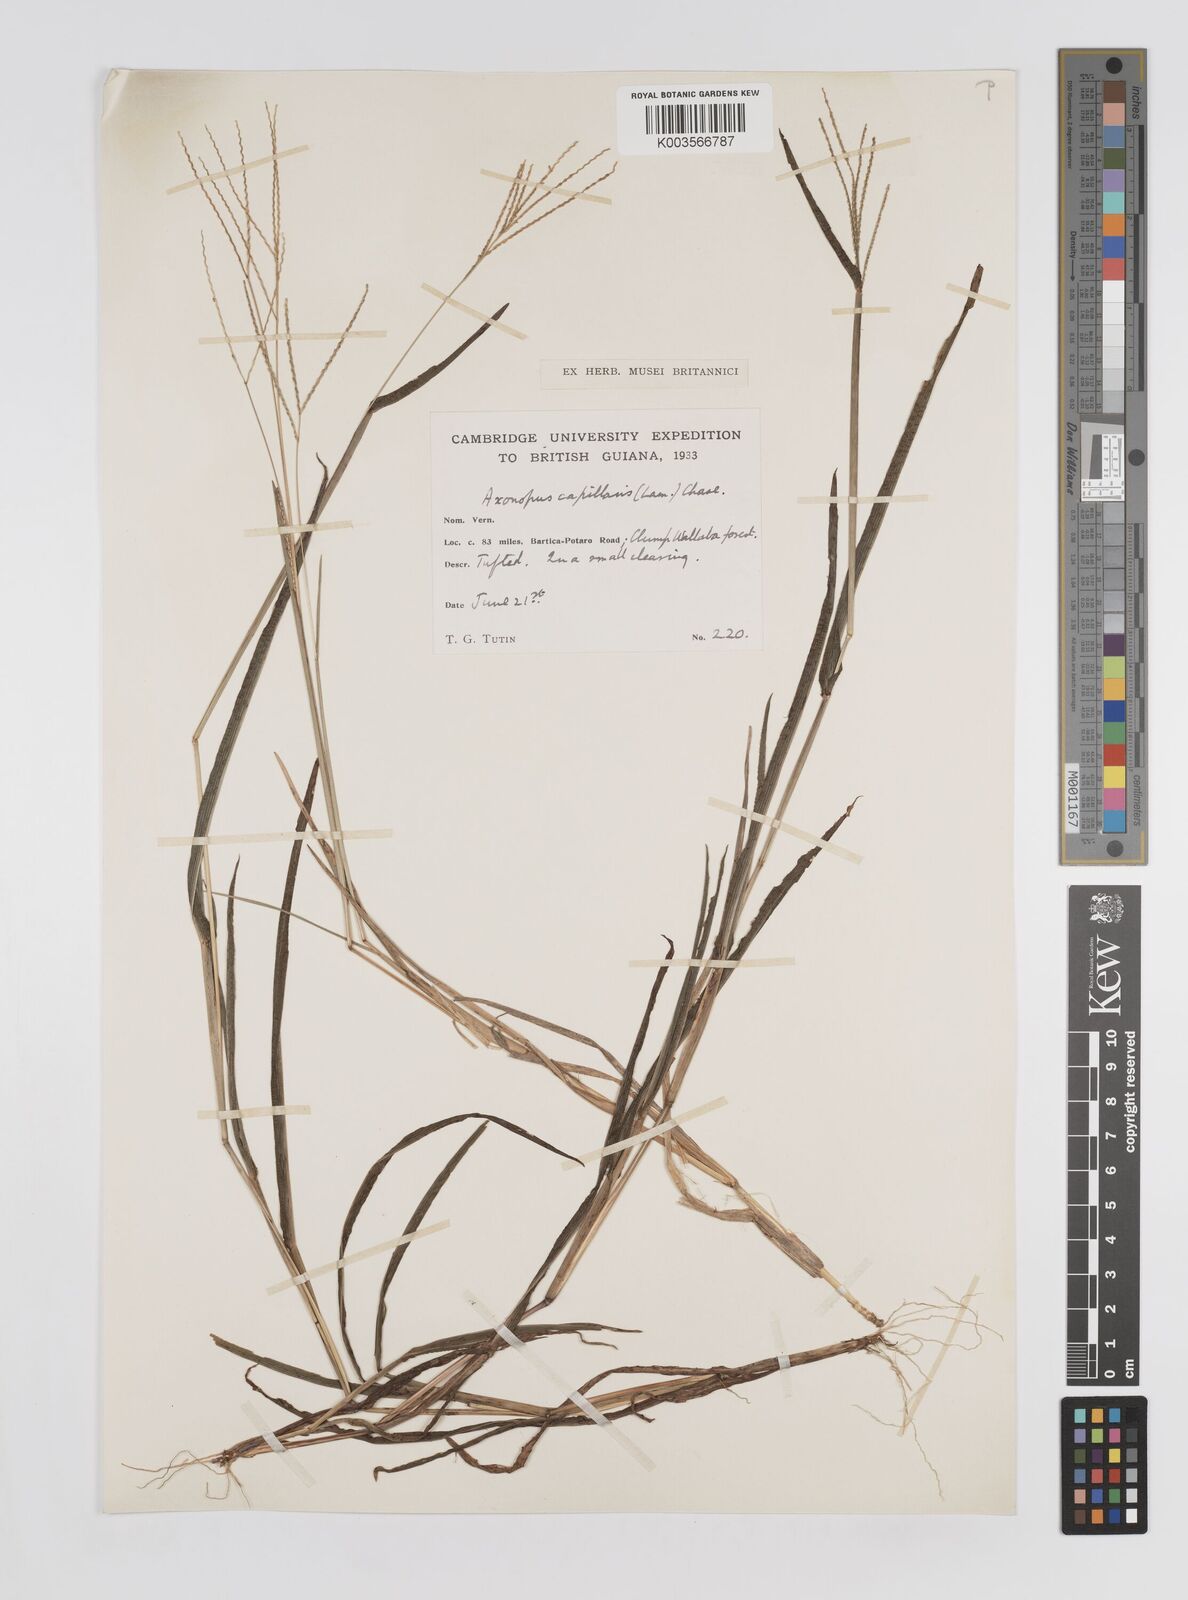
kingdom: Plantae
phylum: Tracheophyta
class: Liliopsida
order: Poales
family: Poaceae
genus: Axonopus
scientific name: Axonopus capillaris
